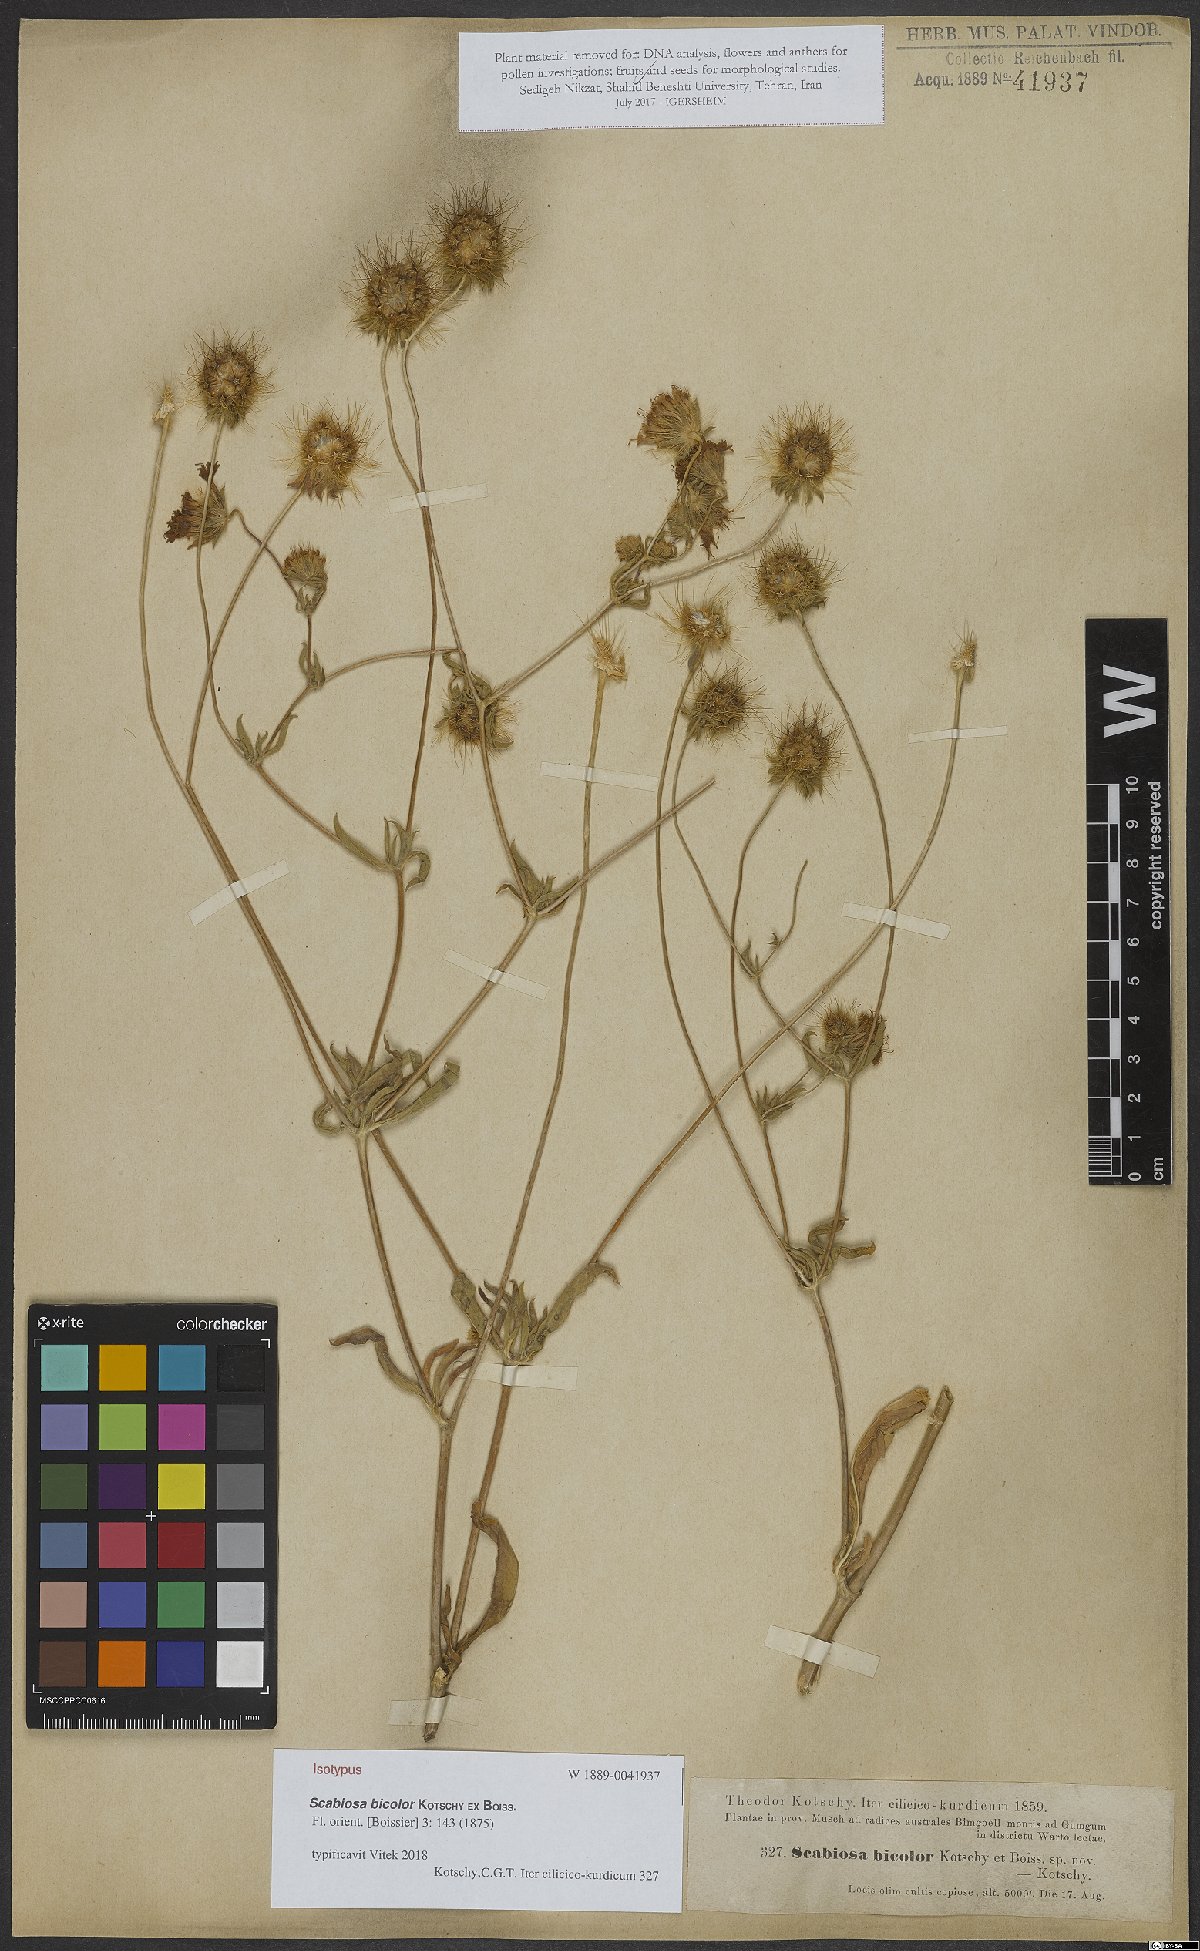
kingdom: Plantae
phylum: Tracheophyta
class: Magnoliopsida
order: Dipsacales
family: Caprifoliaceae
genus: Lomelosia
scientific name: Lomelosia bicolor
